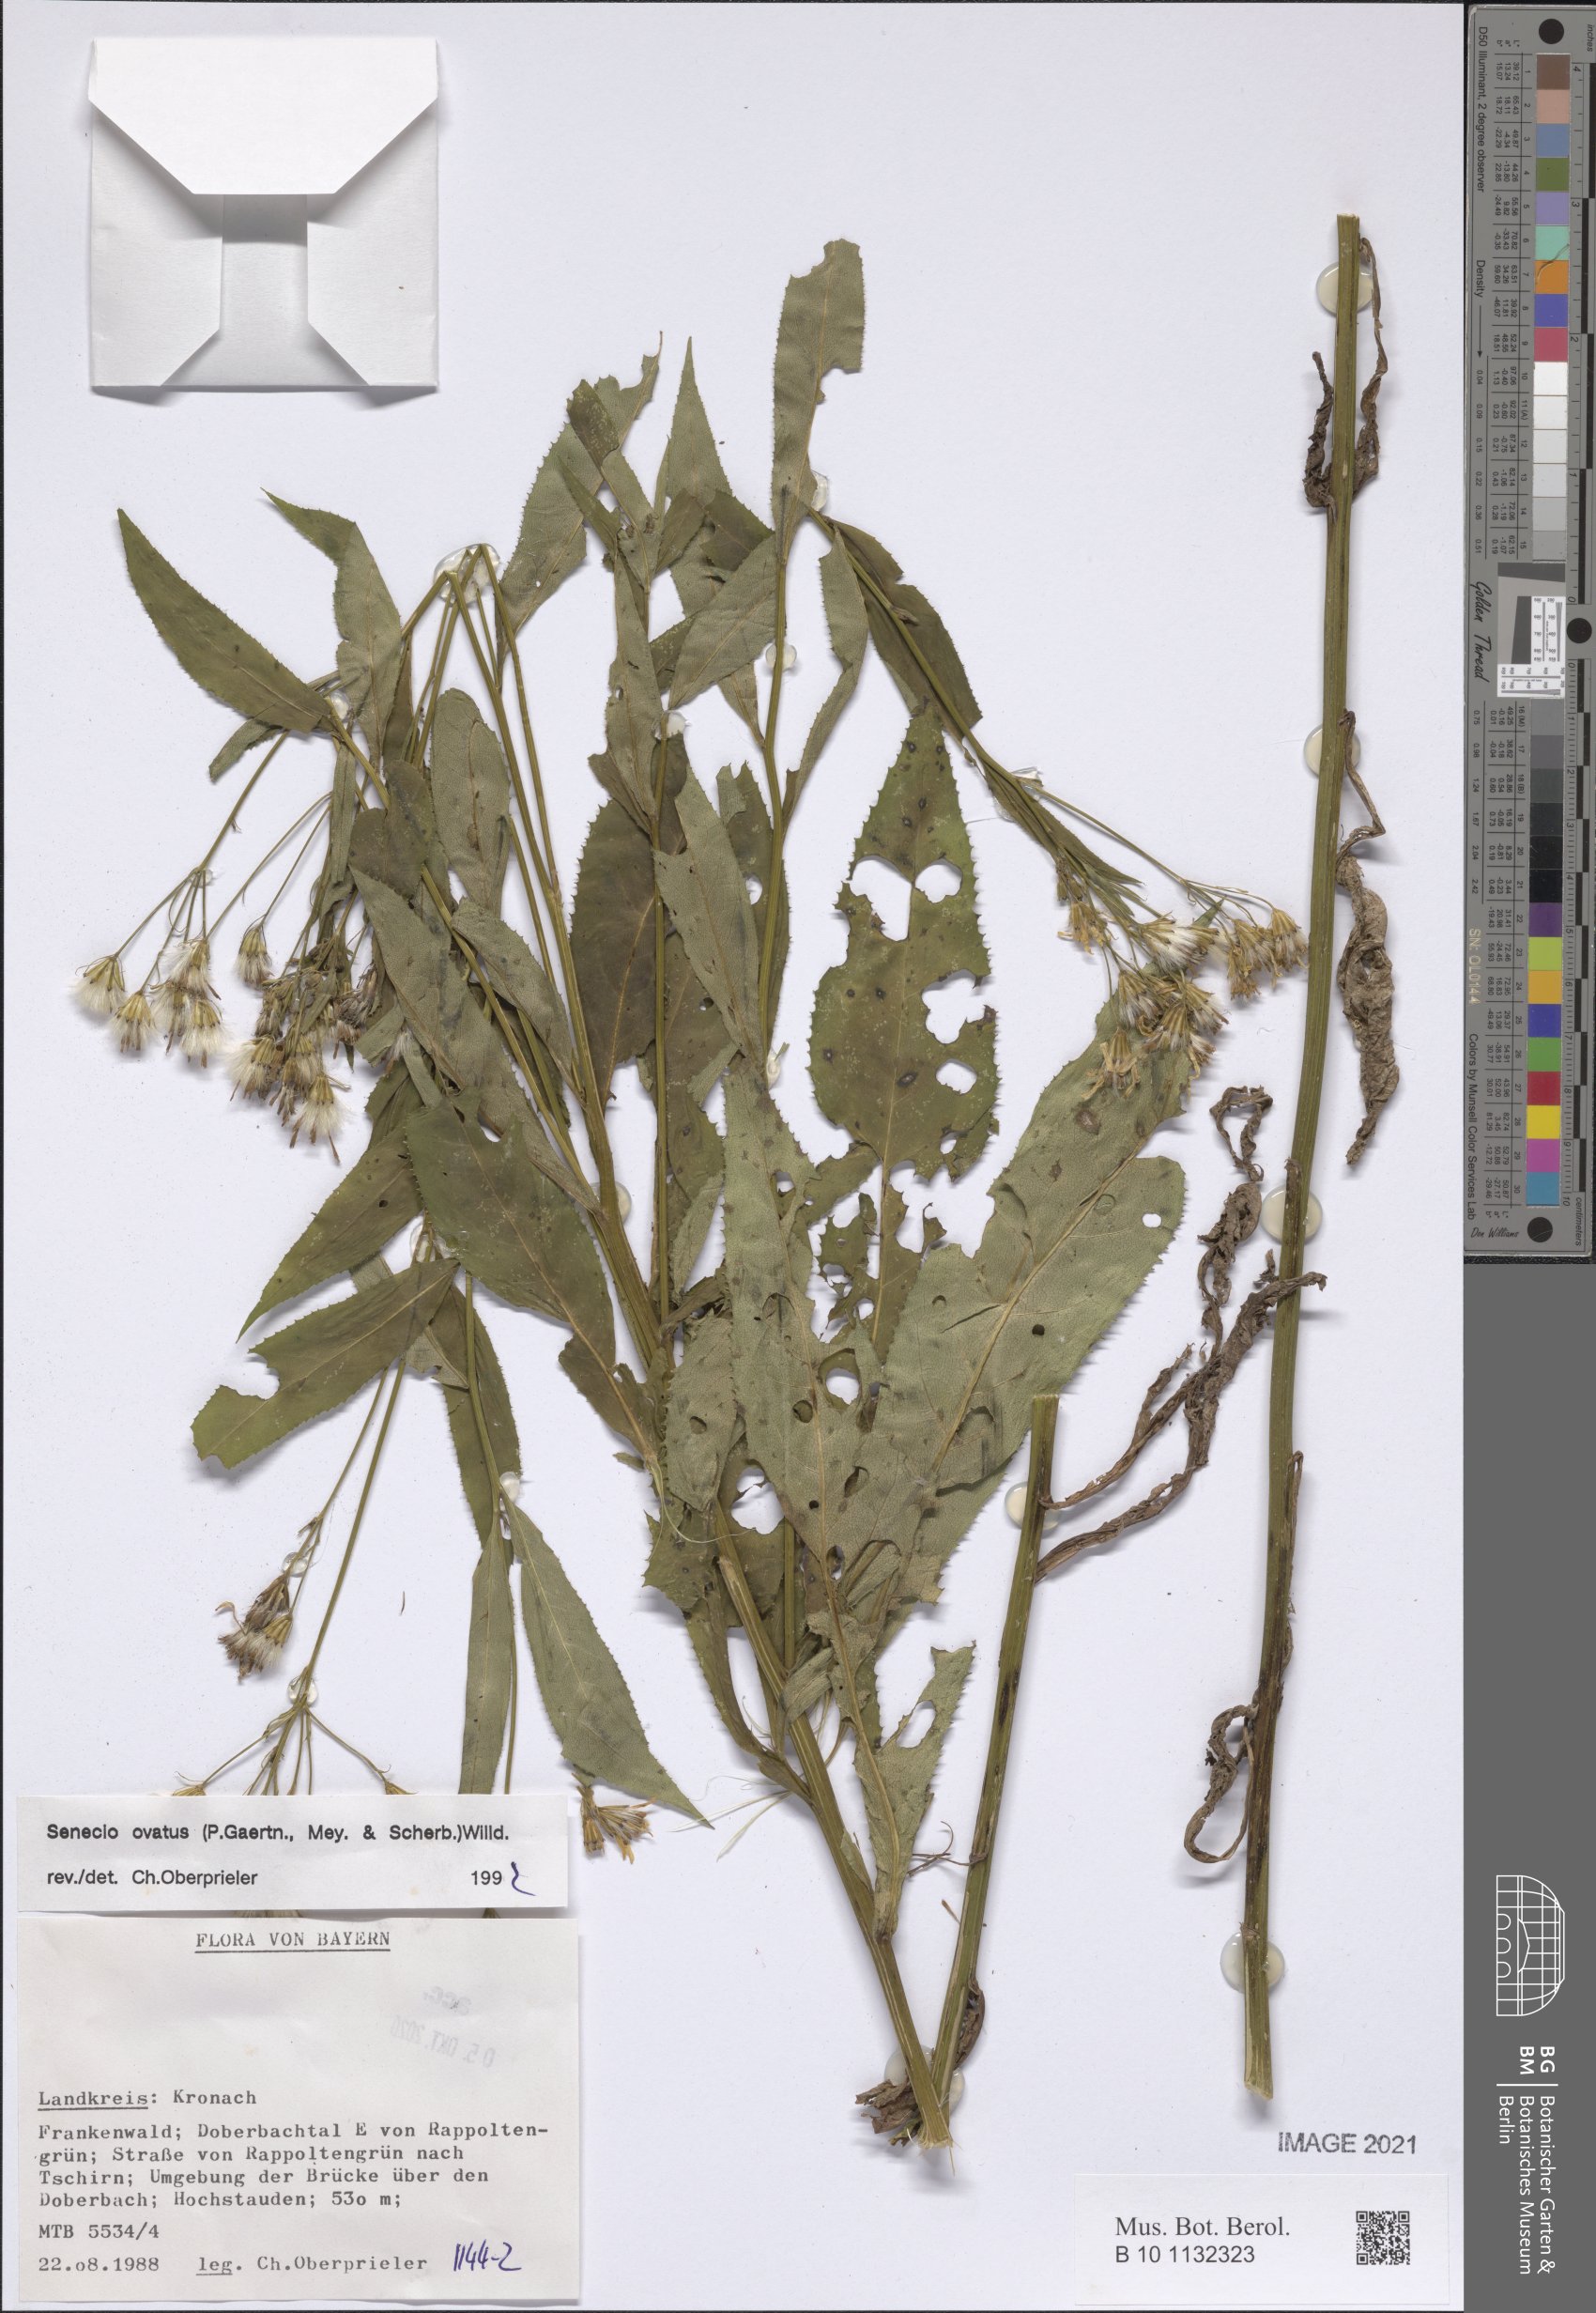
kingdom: Plantae
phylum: Tracheophyta
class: Magnoliopsida
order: Asterales
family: Asteraceae
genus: Senecio
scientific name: Senecio ovatus
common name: Wood ragwort
